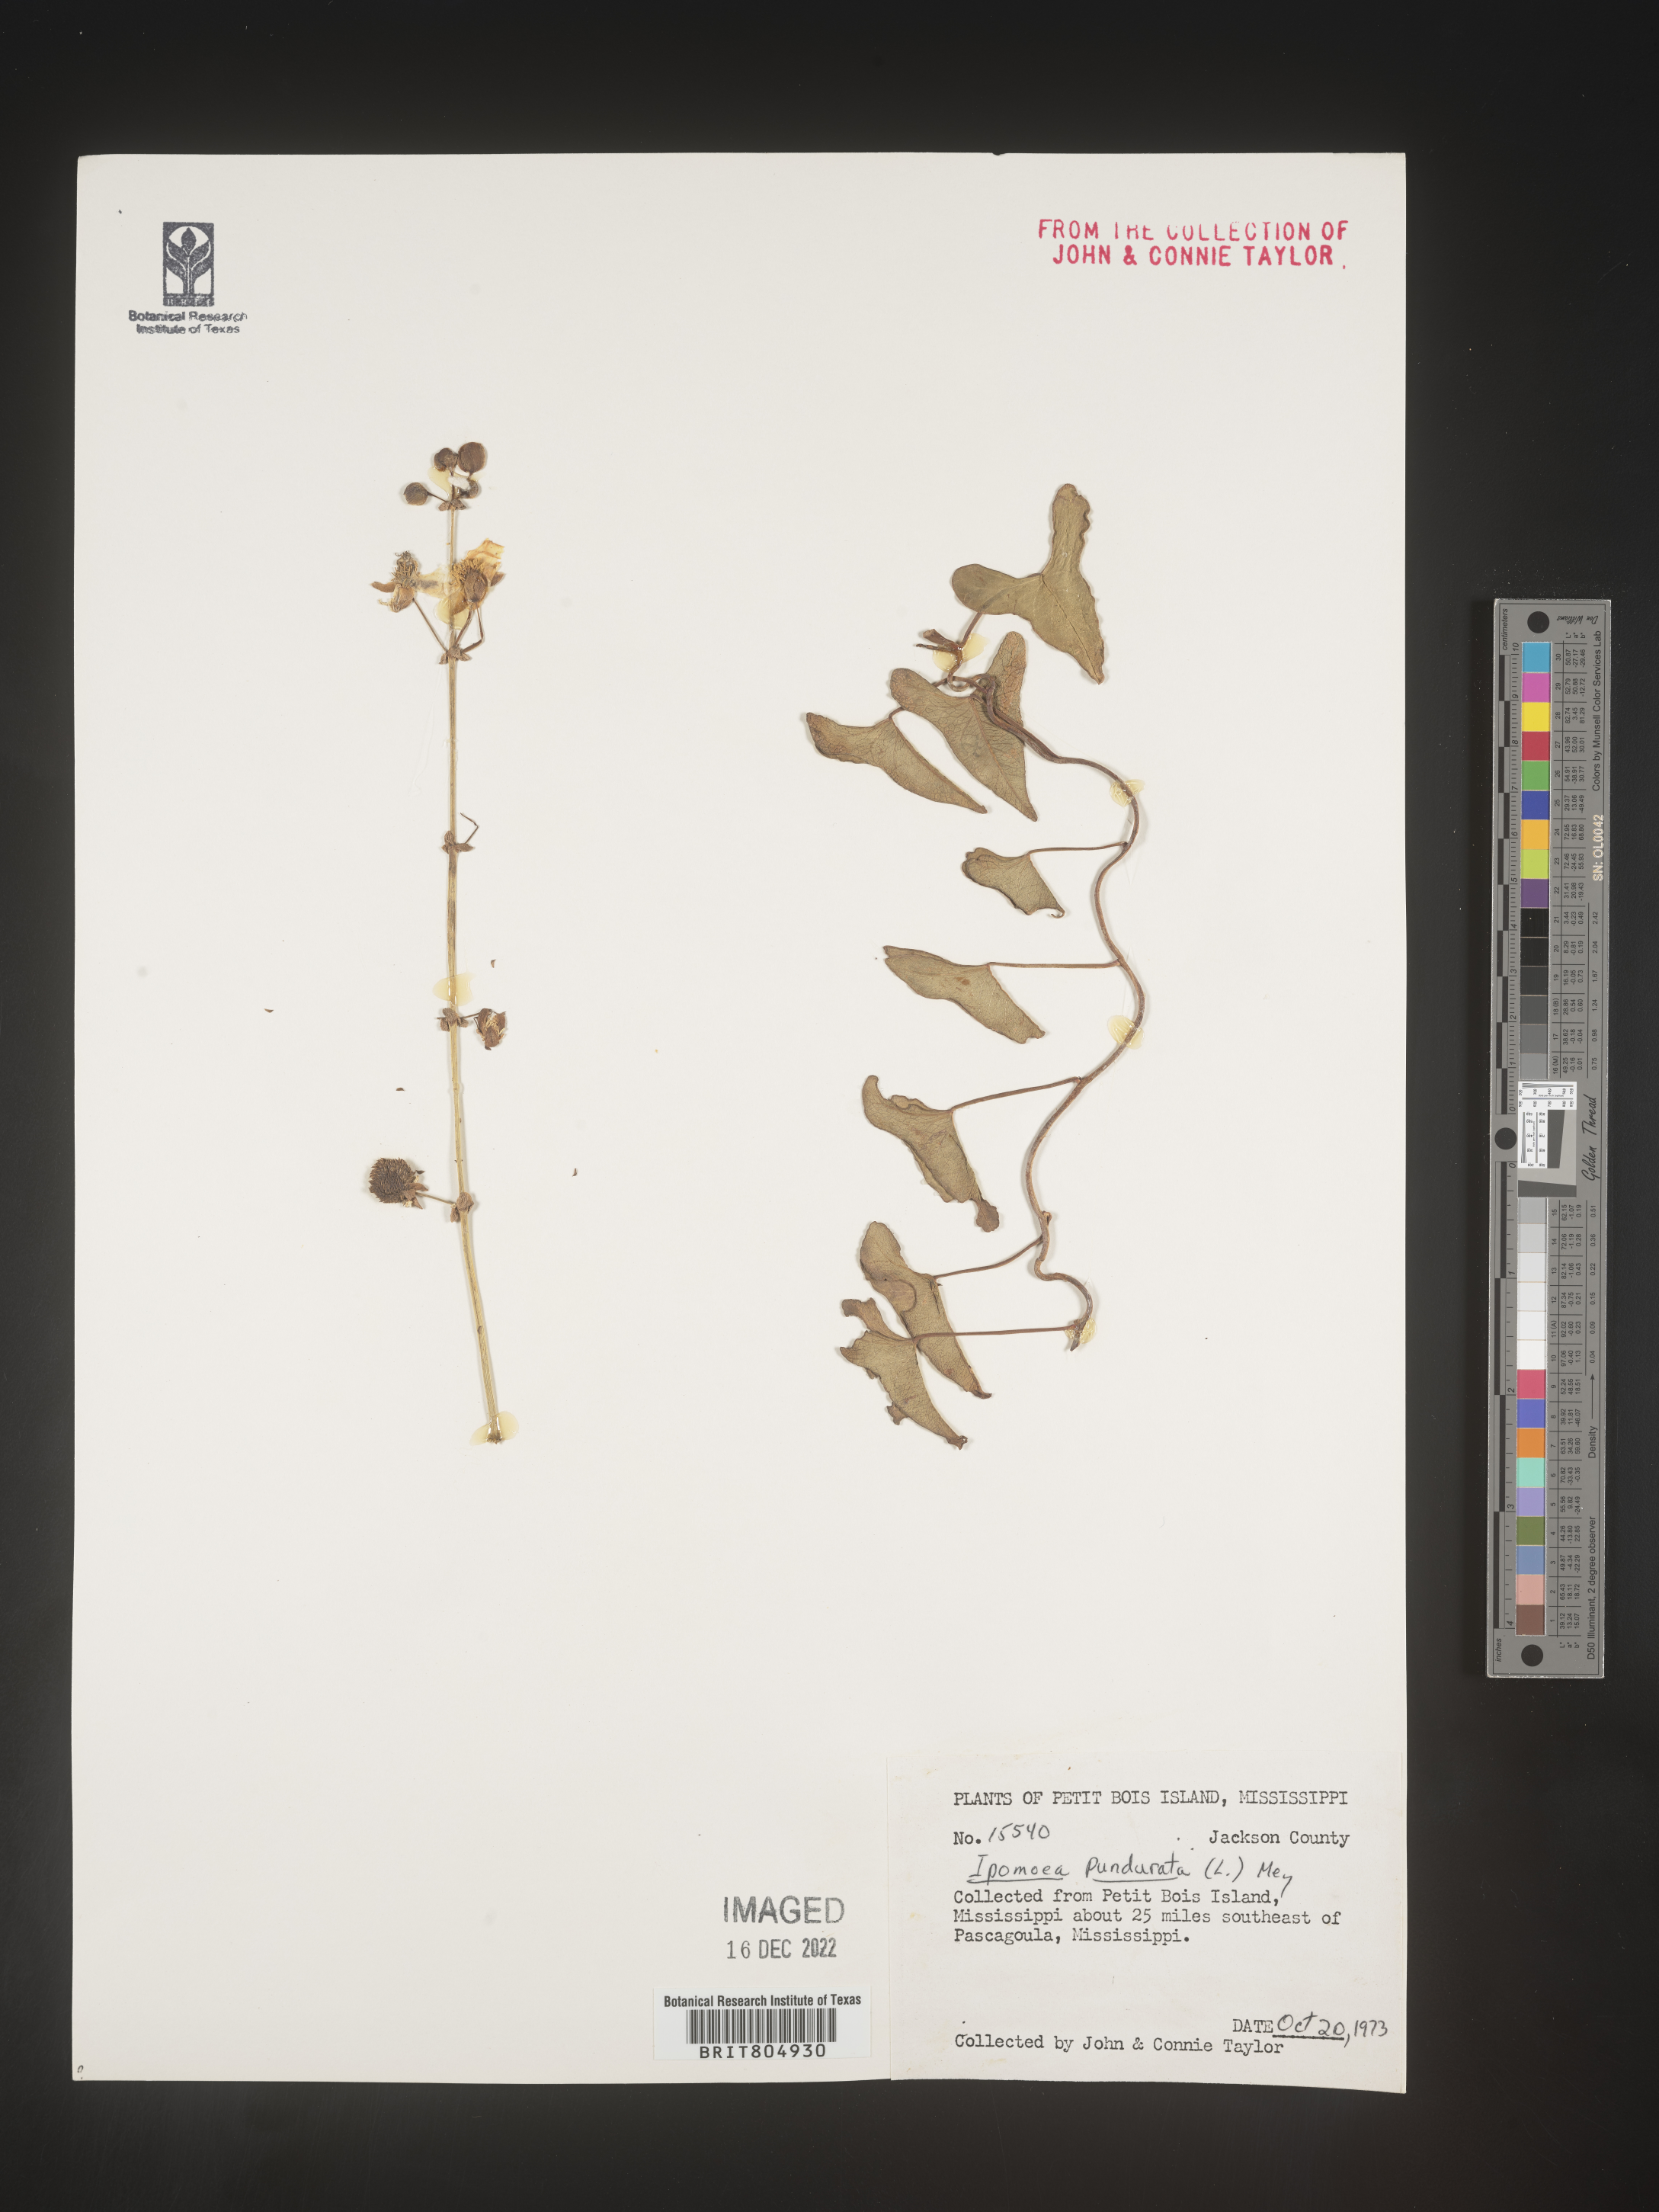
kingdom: Plantae
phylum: Tracheophyta
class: Magnoliopsida
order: Solanales
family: Convolvulaceae
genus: Ipomoea
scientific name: Ipomoea pandurata
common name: Man-of-the-earth
